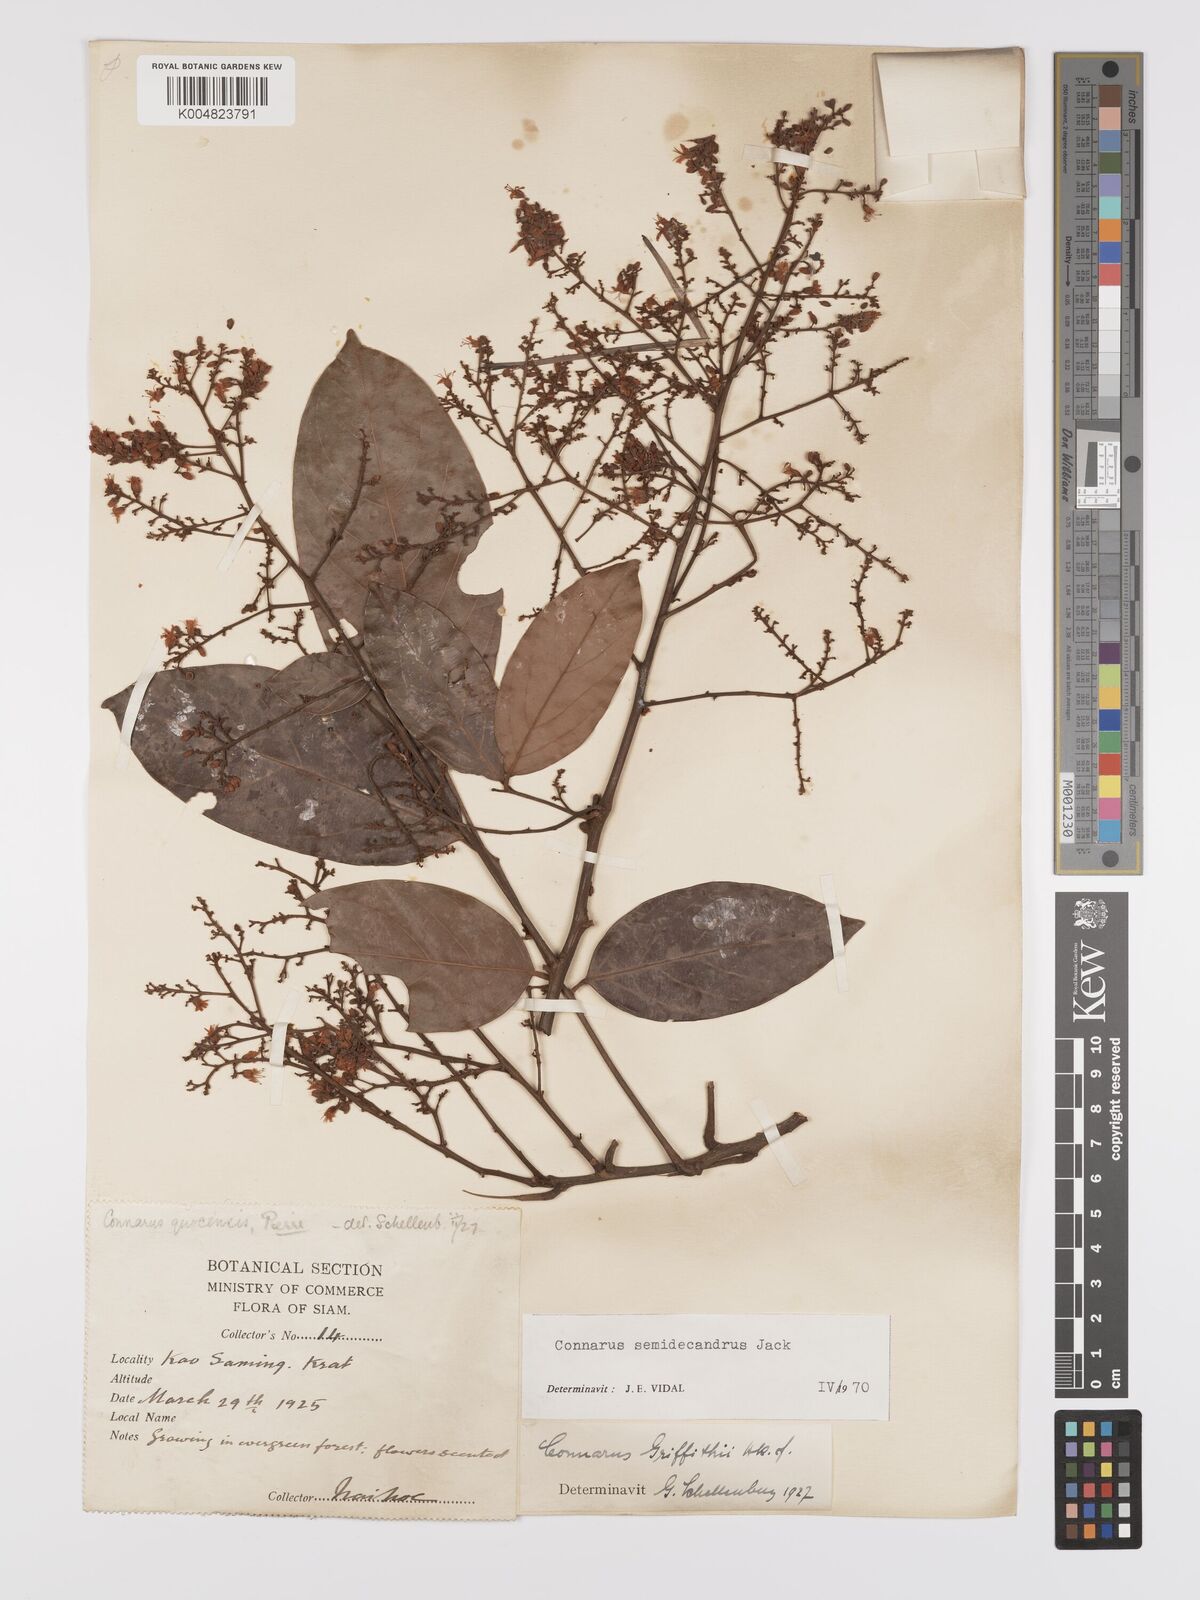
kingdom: Plantae
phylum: Tracheophyta
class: Magnoliopsida
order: Oxalidales
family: Connaraceae
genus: Connarus
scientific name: Connarus semidecandrus
